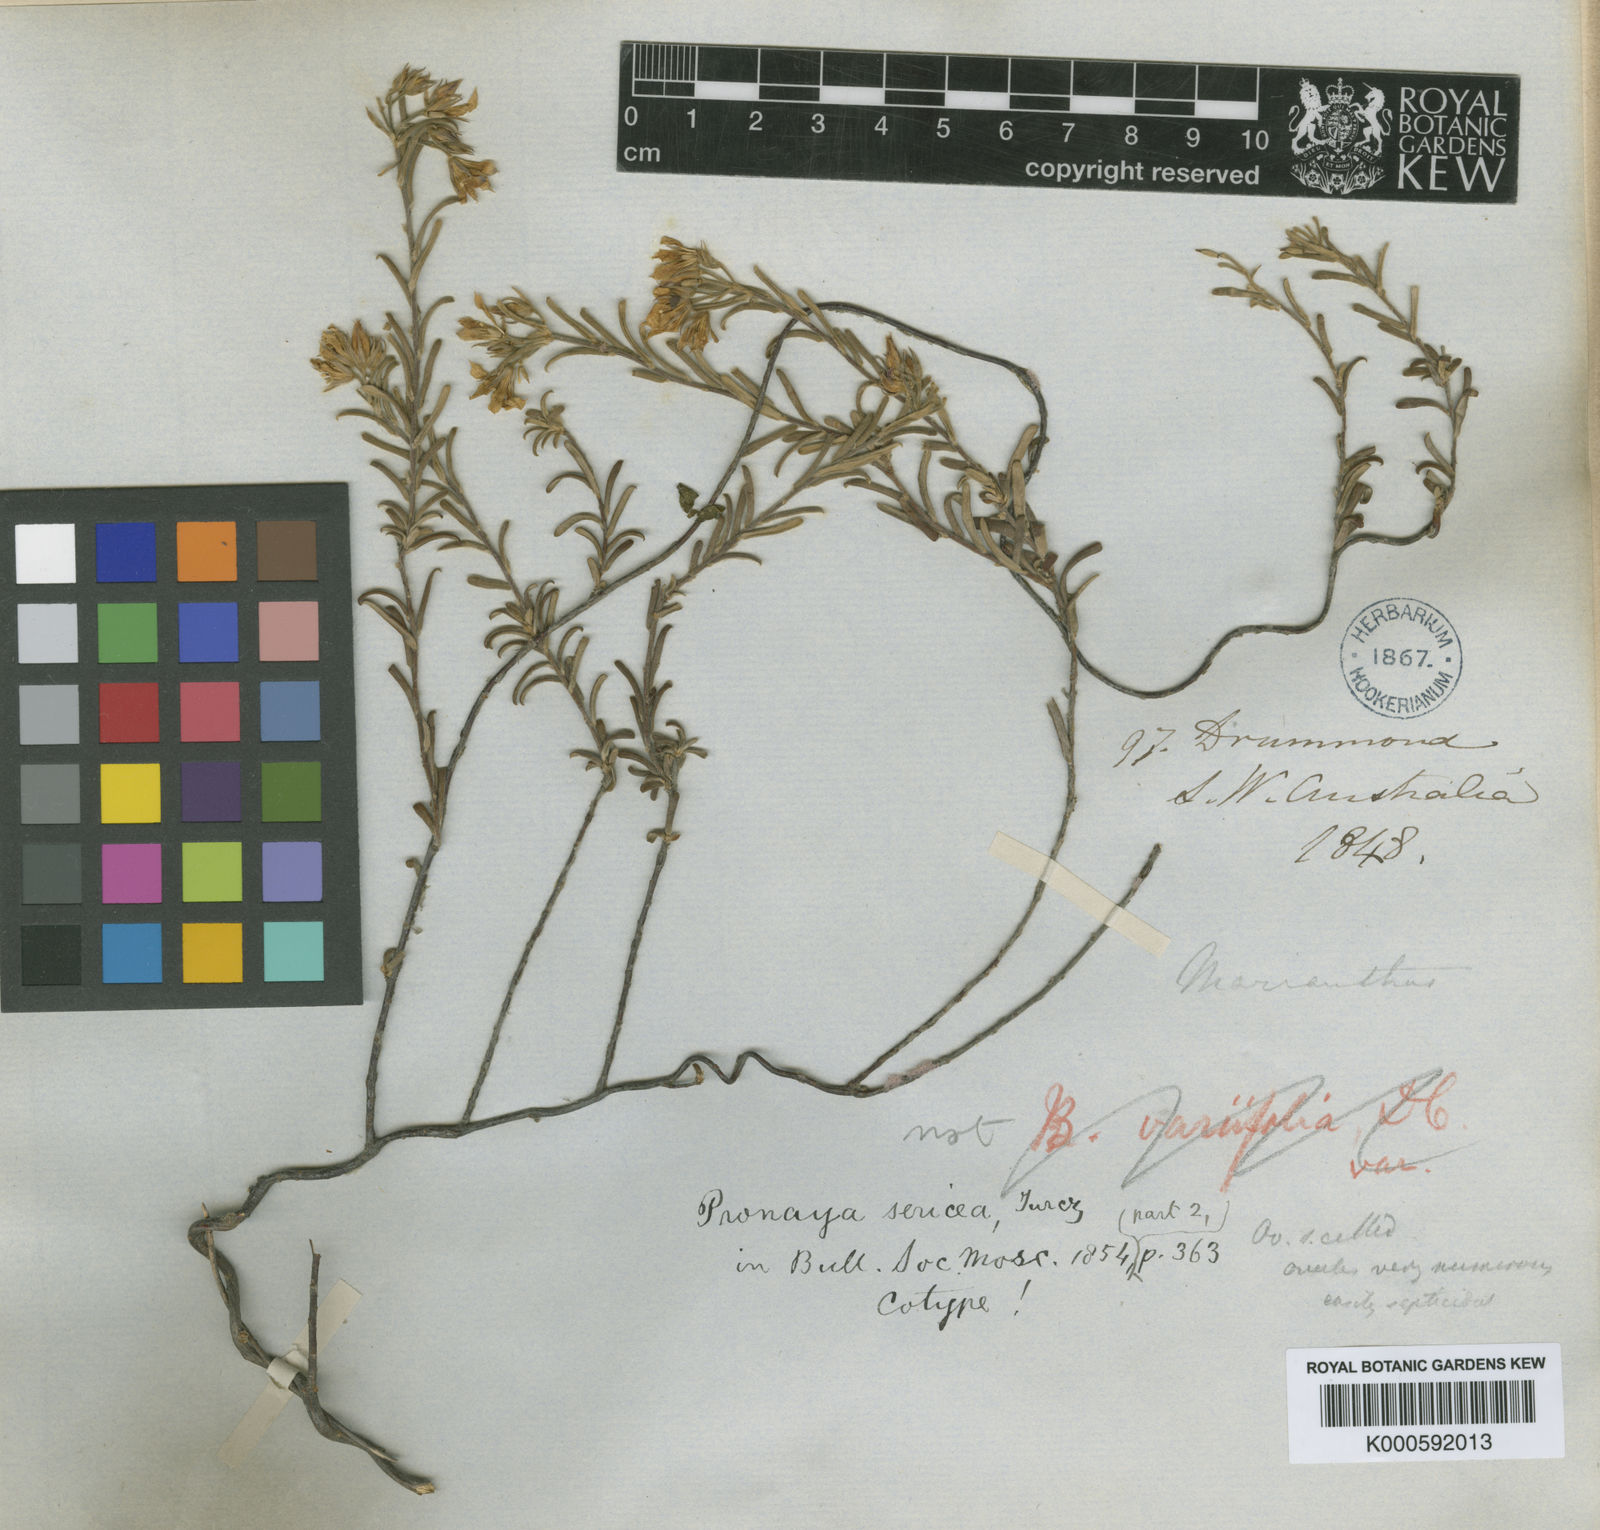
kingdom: Plantae
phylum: Tracheophyta
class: Magnoliopsida
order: Apiales
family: Pittosporaceae
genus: Billardiera
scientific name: Billardiera variifolia
